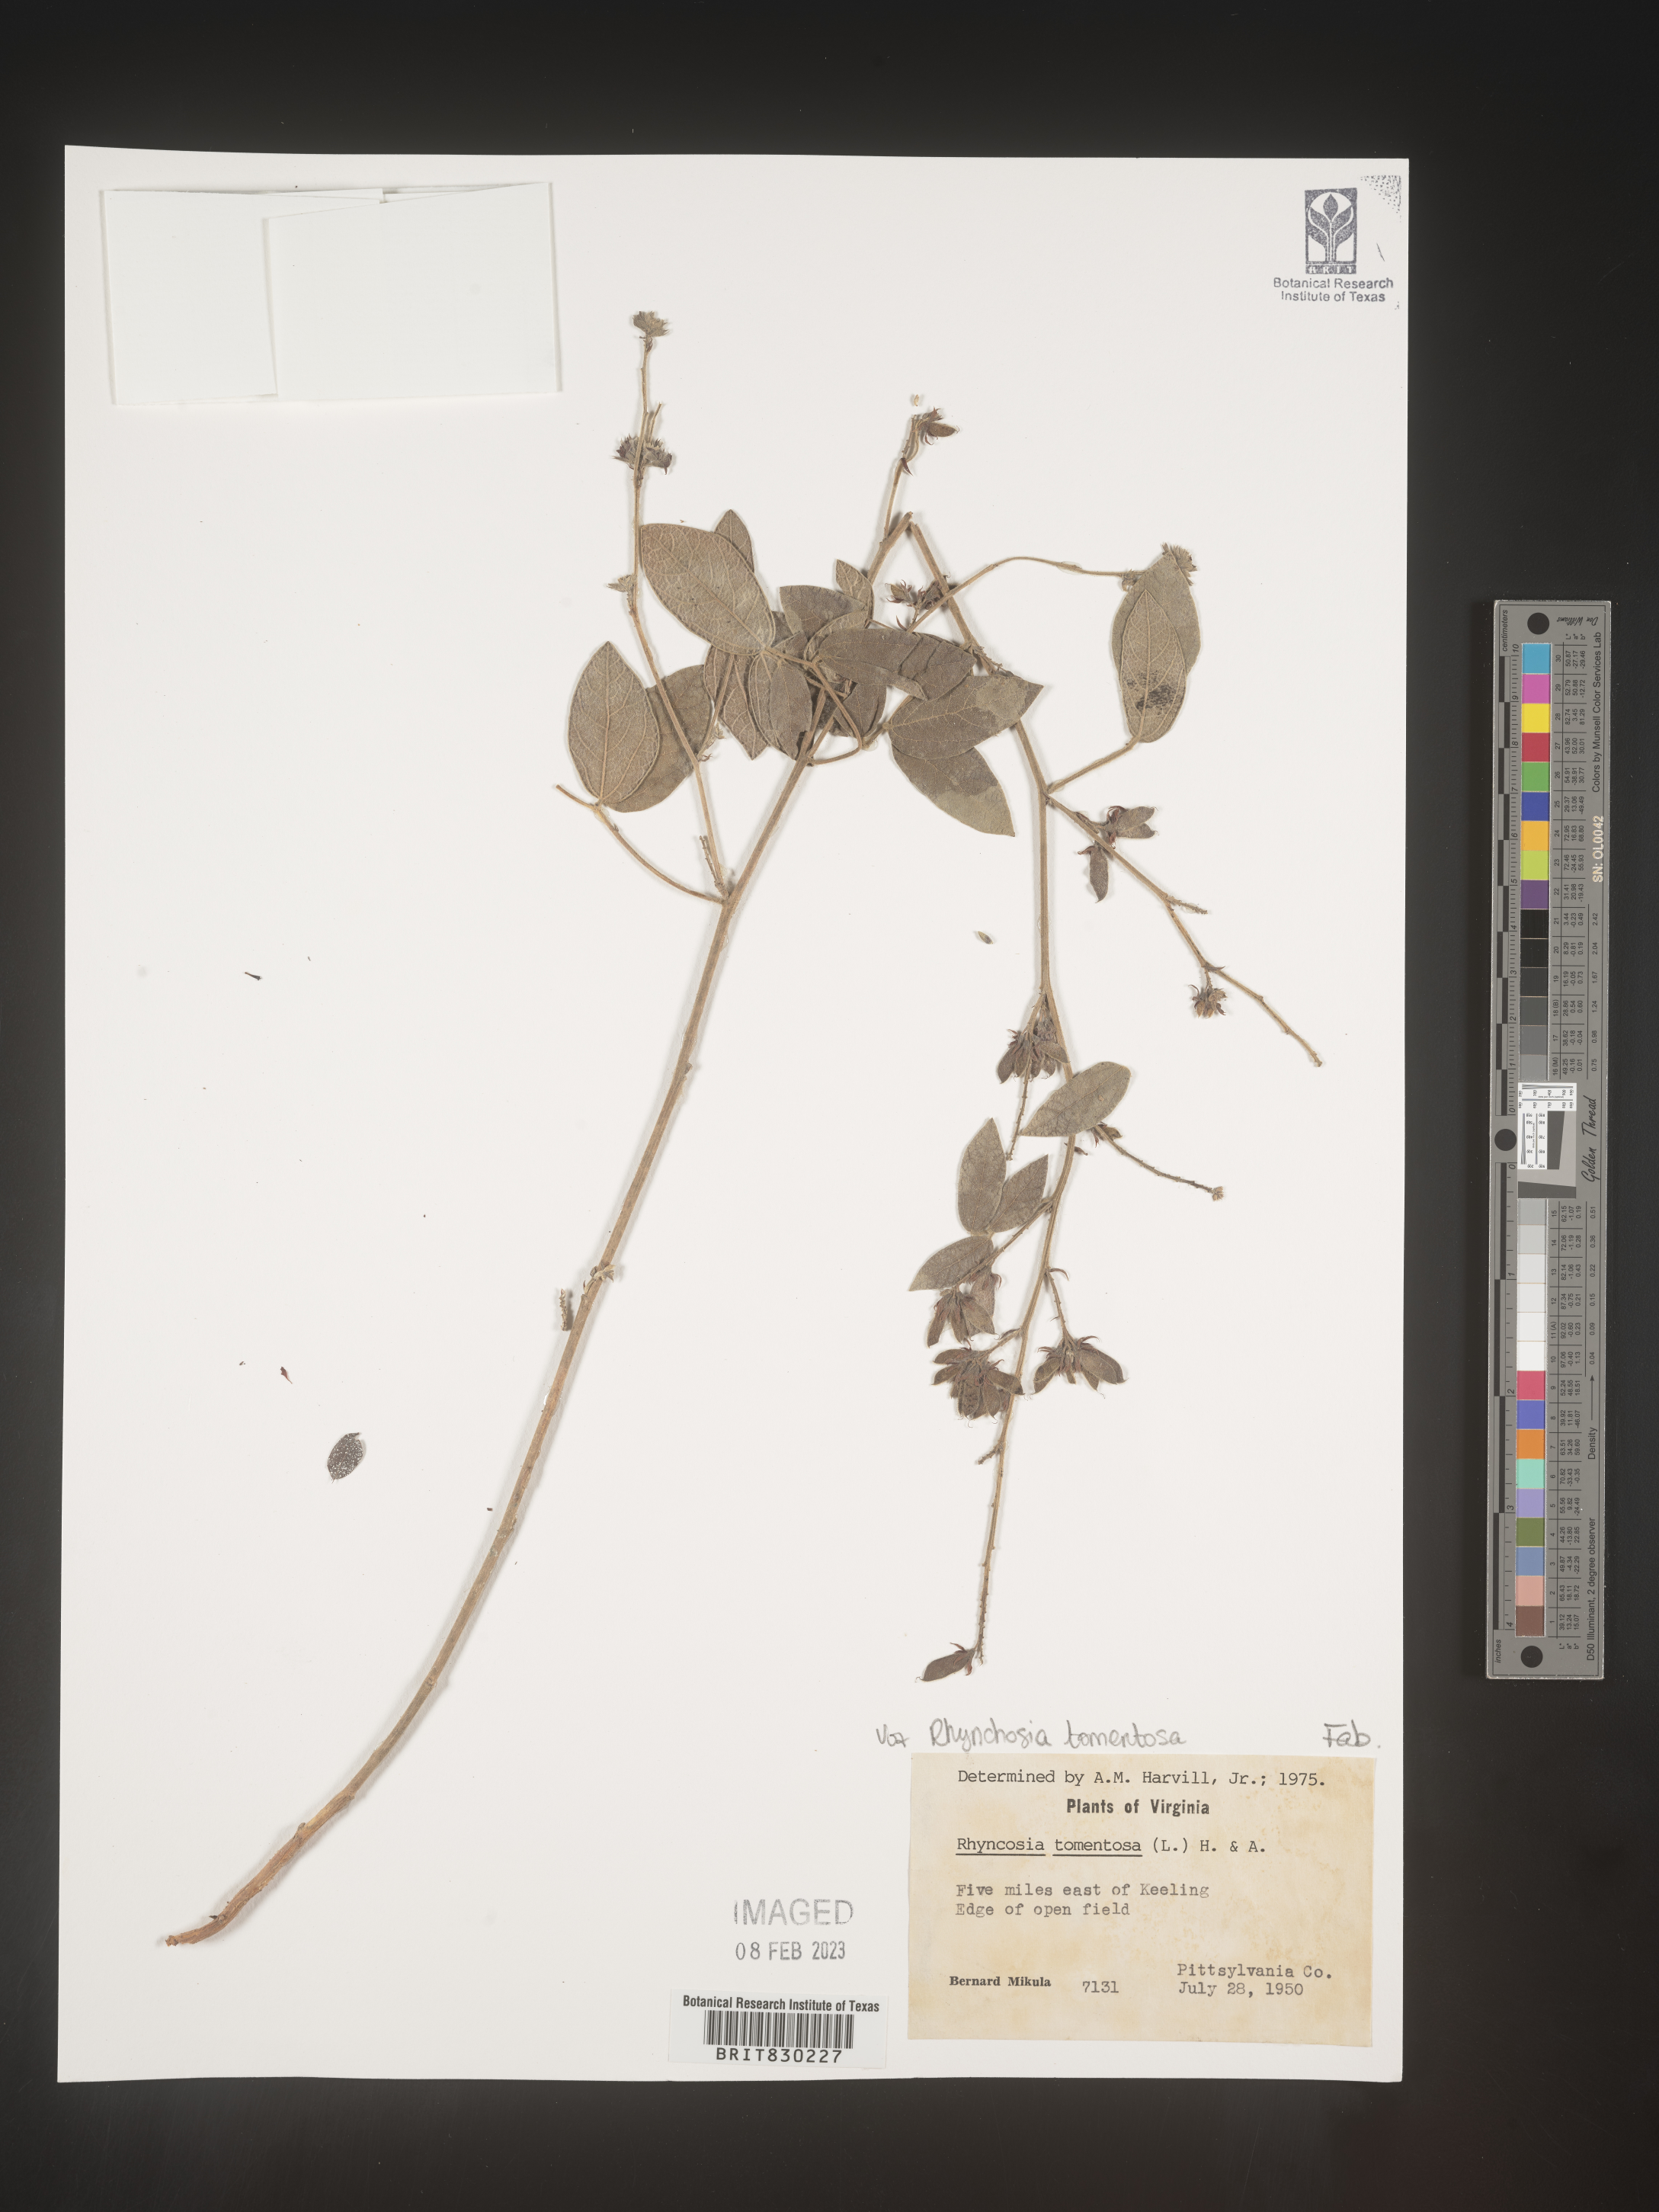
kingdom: Plantae
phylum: Tracheophyta
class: Magnoliopsida
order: Fabales
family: Fabaceae
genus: Rhynchosia
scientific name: Rhynchosia rothii
